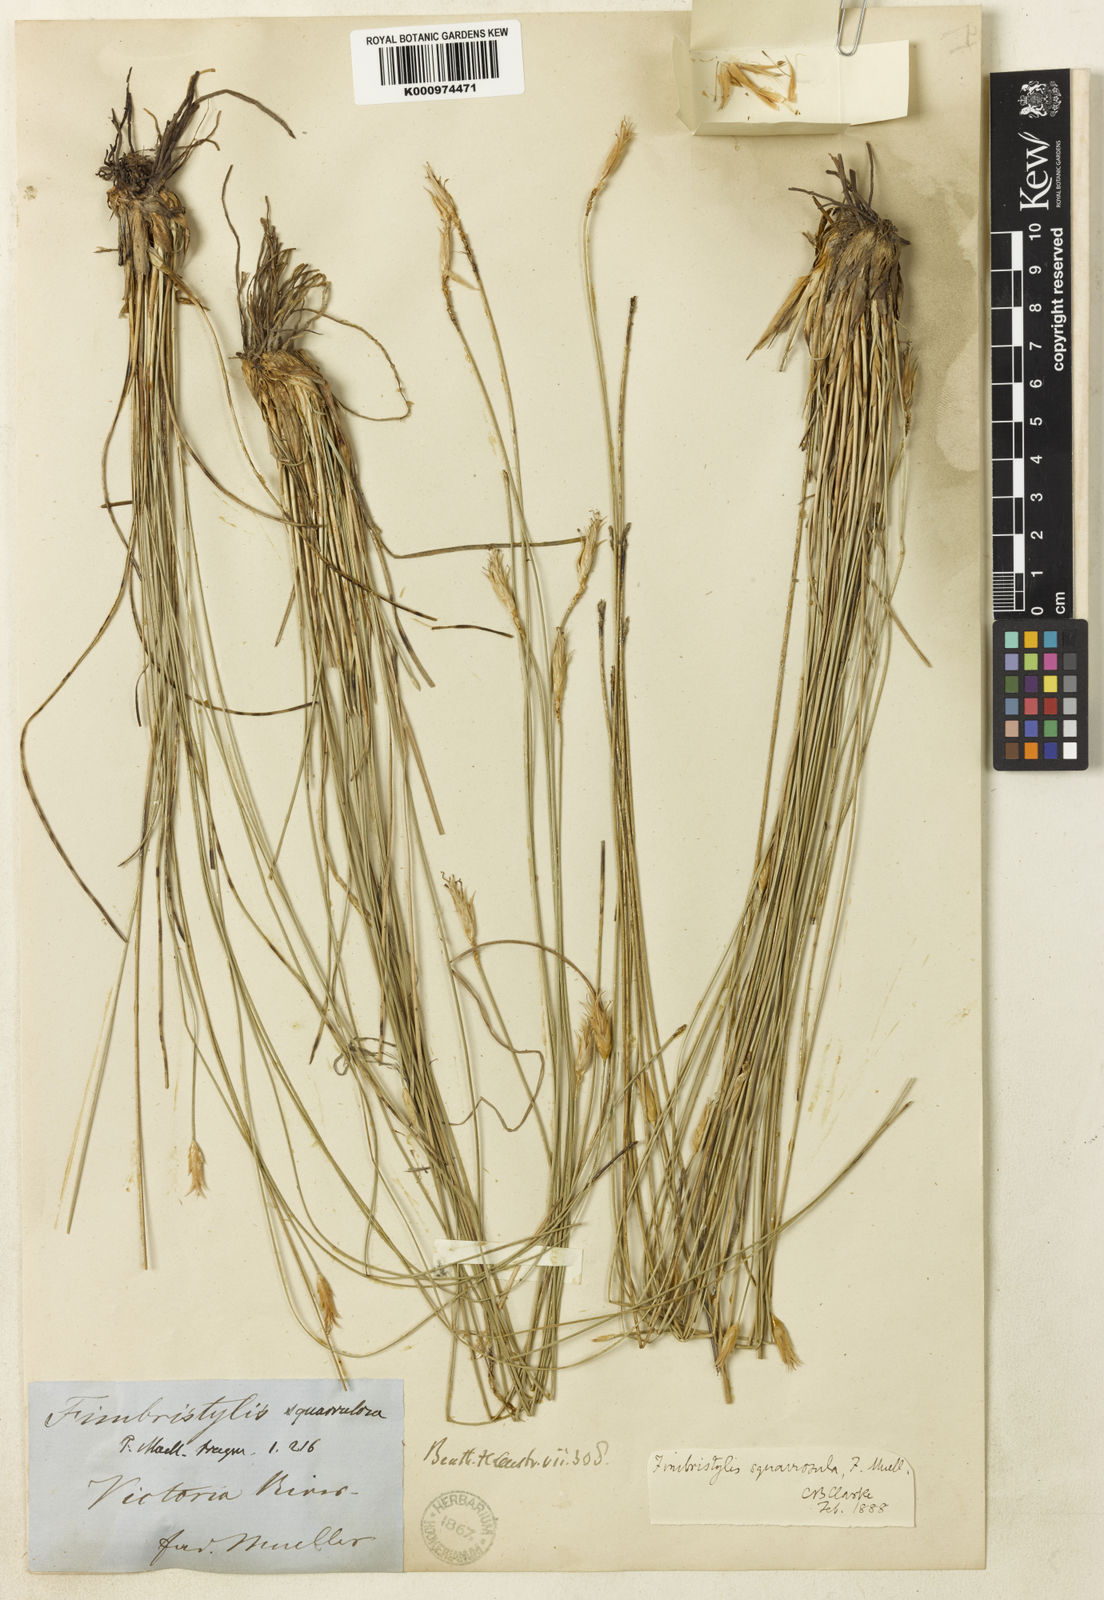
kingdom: Plantae
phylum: Tracheophyta
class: Liliopsida
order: Poales
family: Cyperaceae
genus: Abildgaardia
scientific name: Abildgaardia schoenoides
